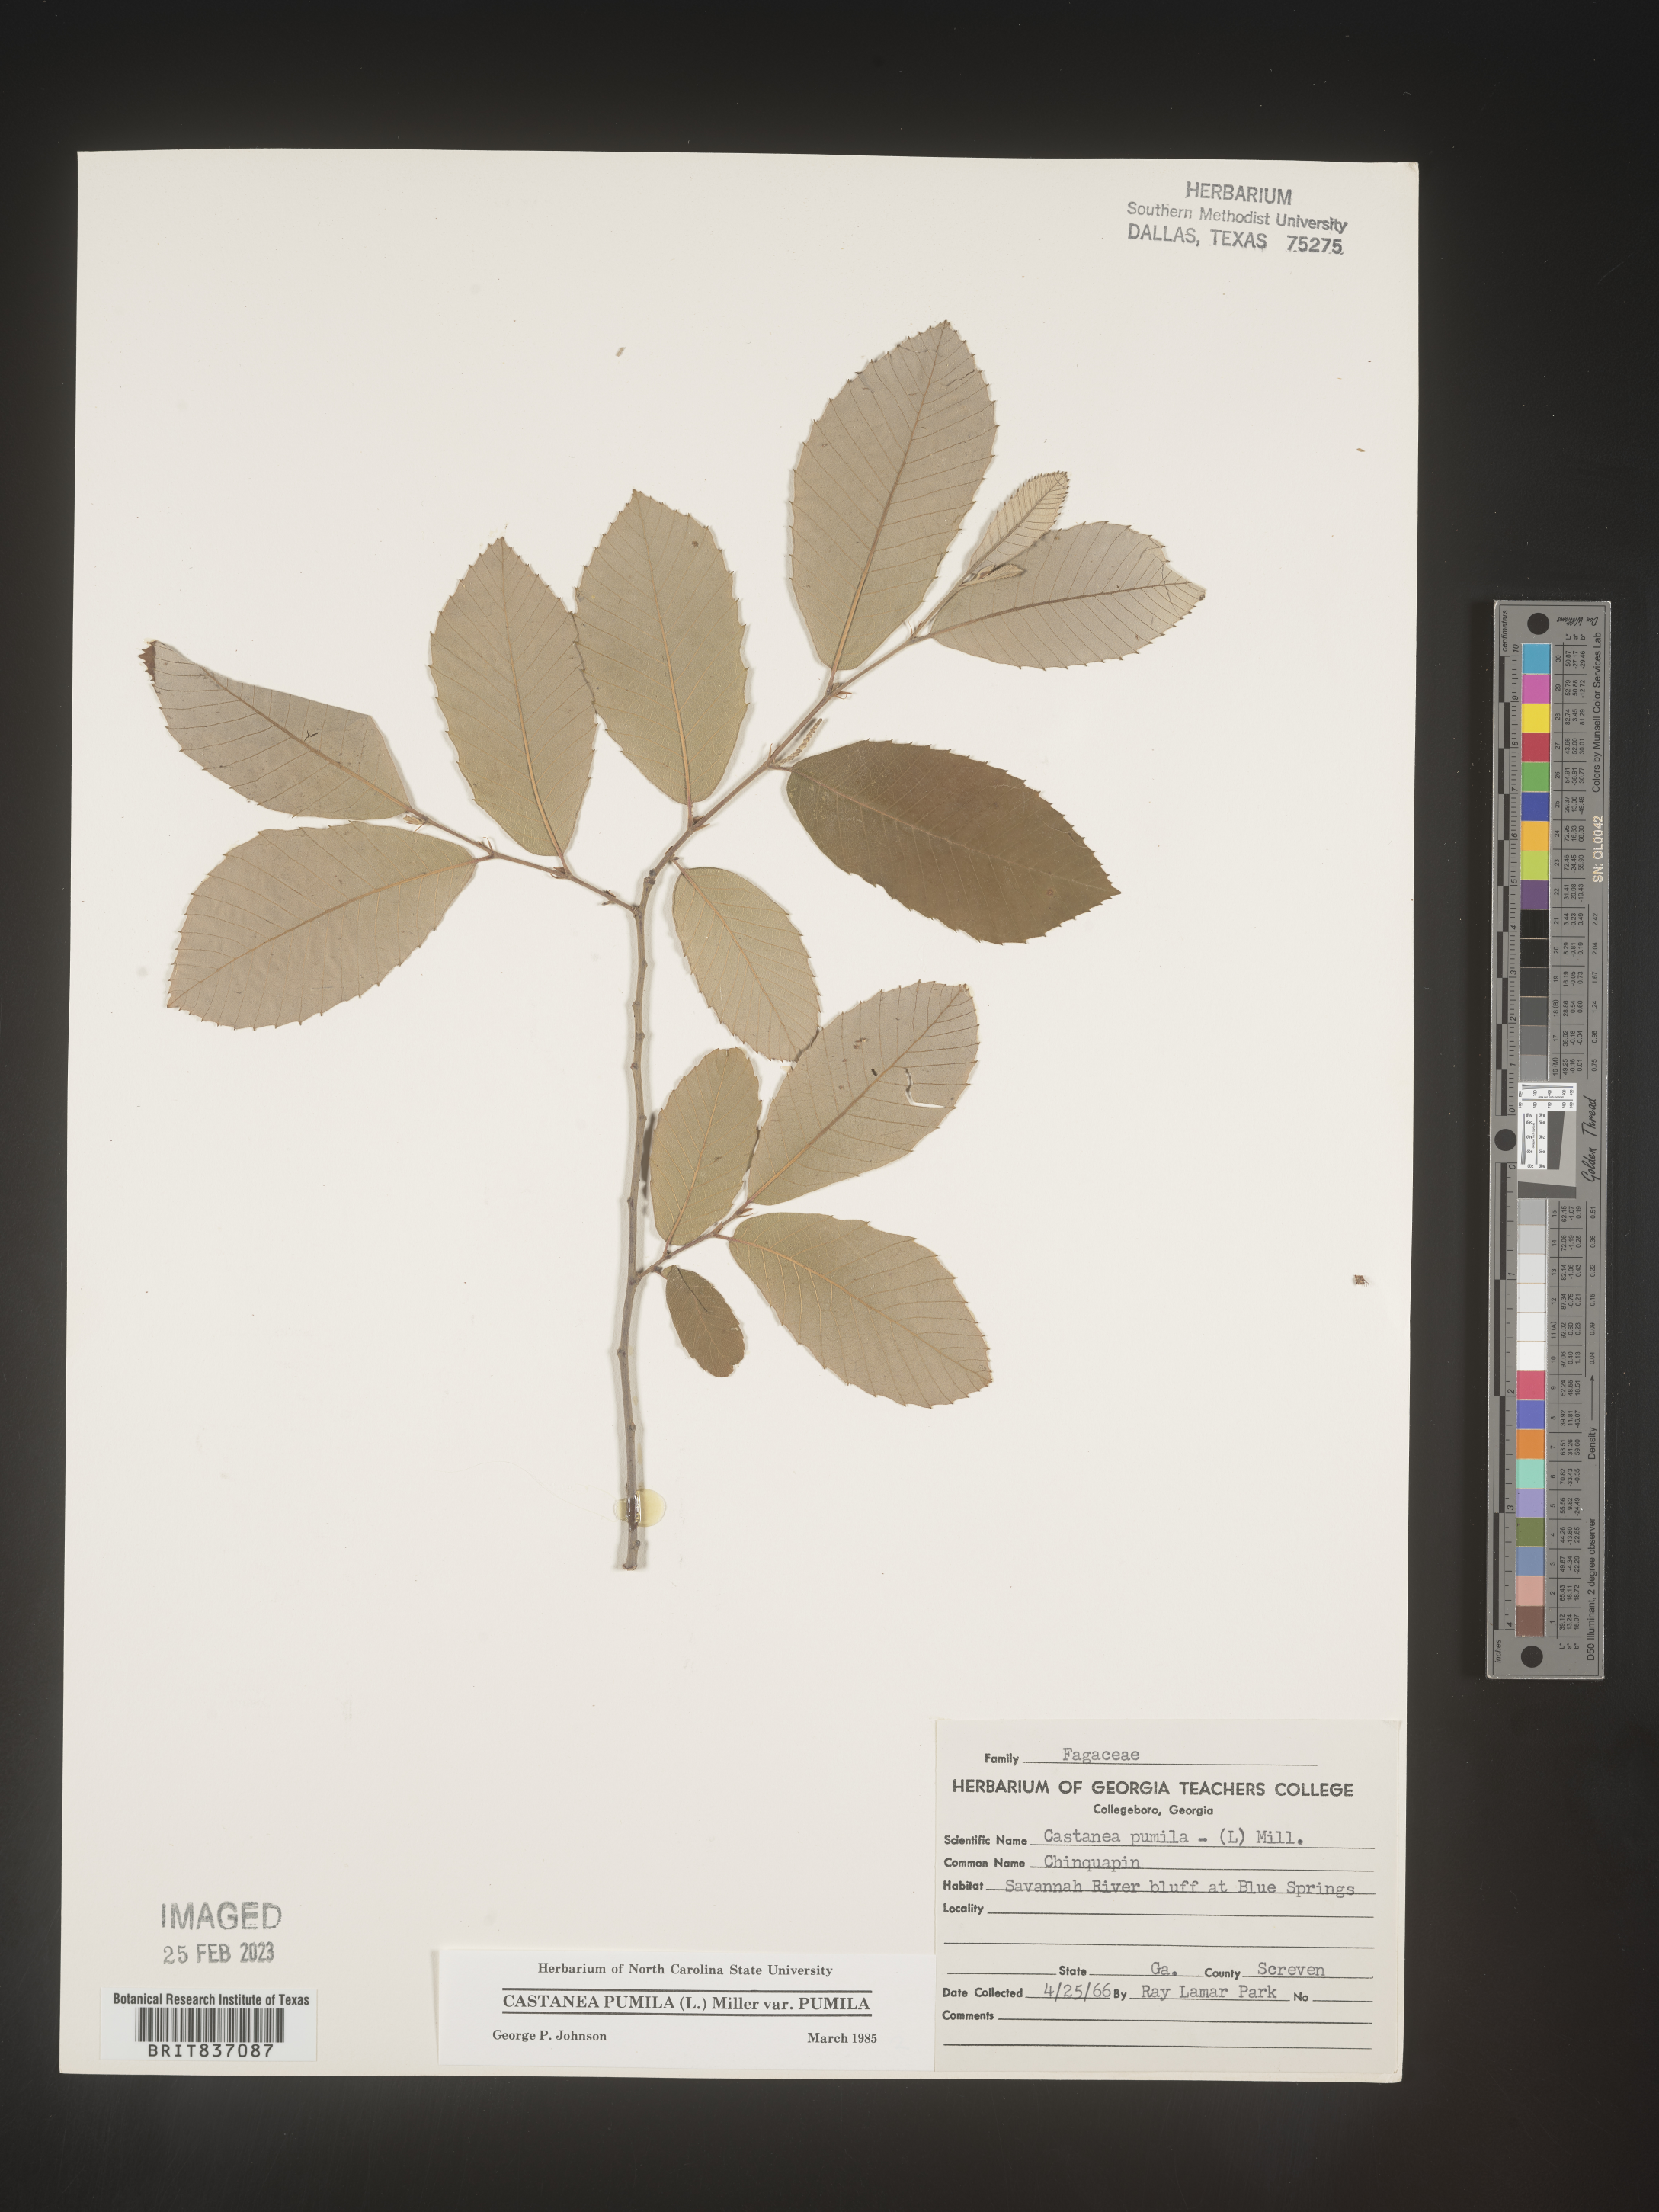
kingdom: Plantae
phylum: Tracheophyta
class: Magnoliopsida
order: Fagales
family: Fagaceae
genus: Castanea
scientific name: Castanea pumila
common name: Chinkapin
